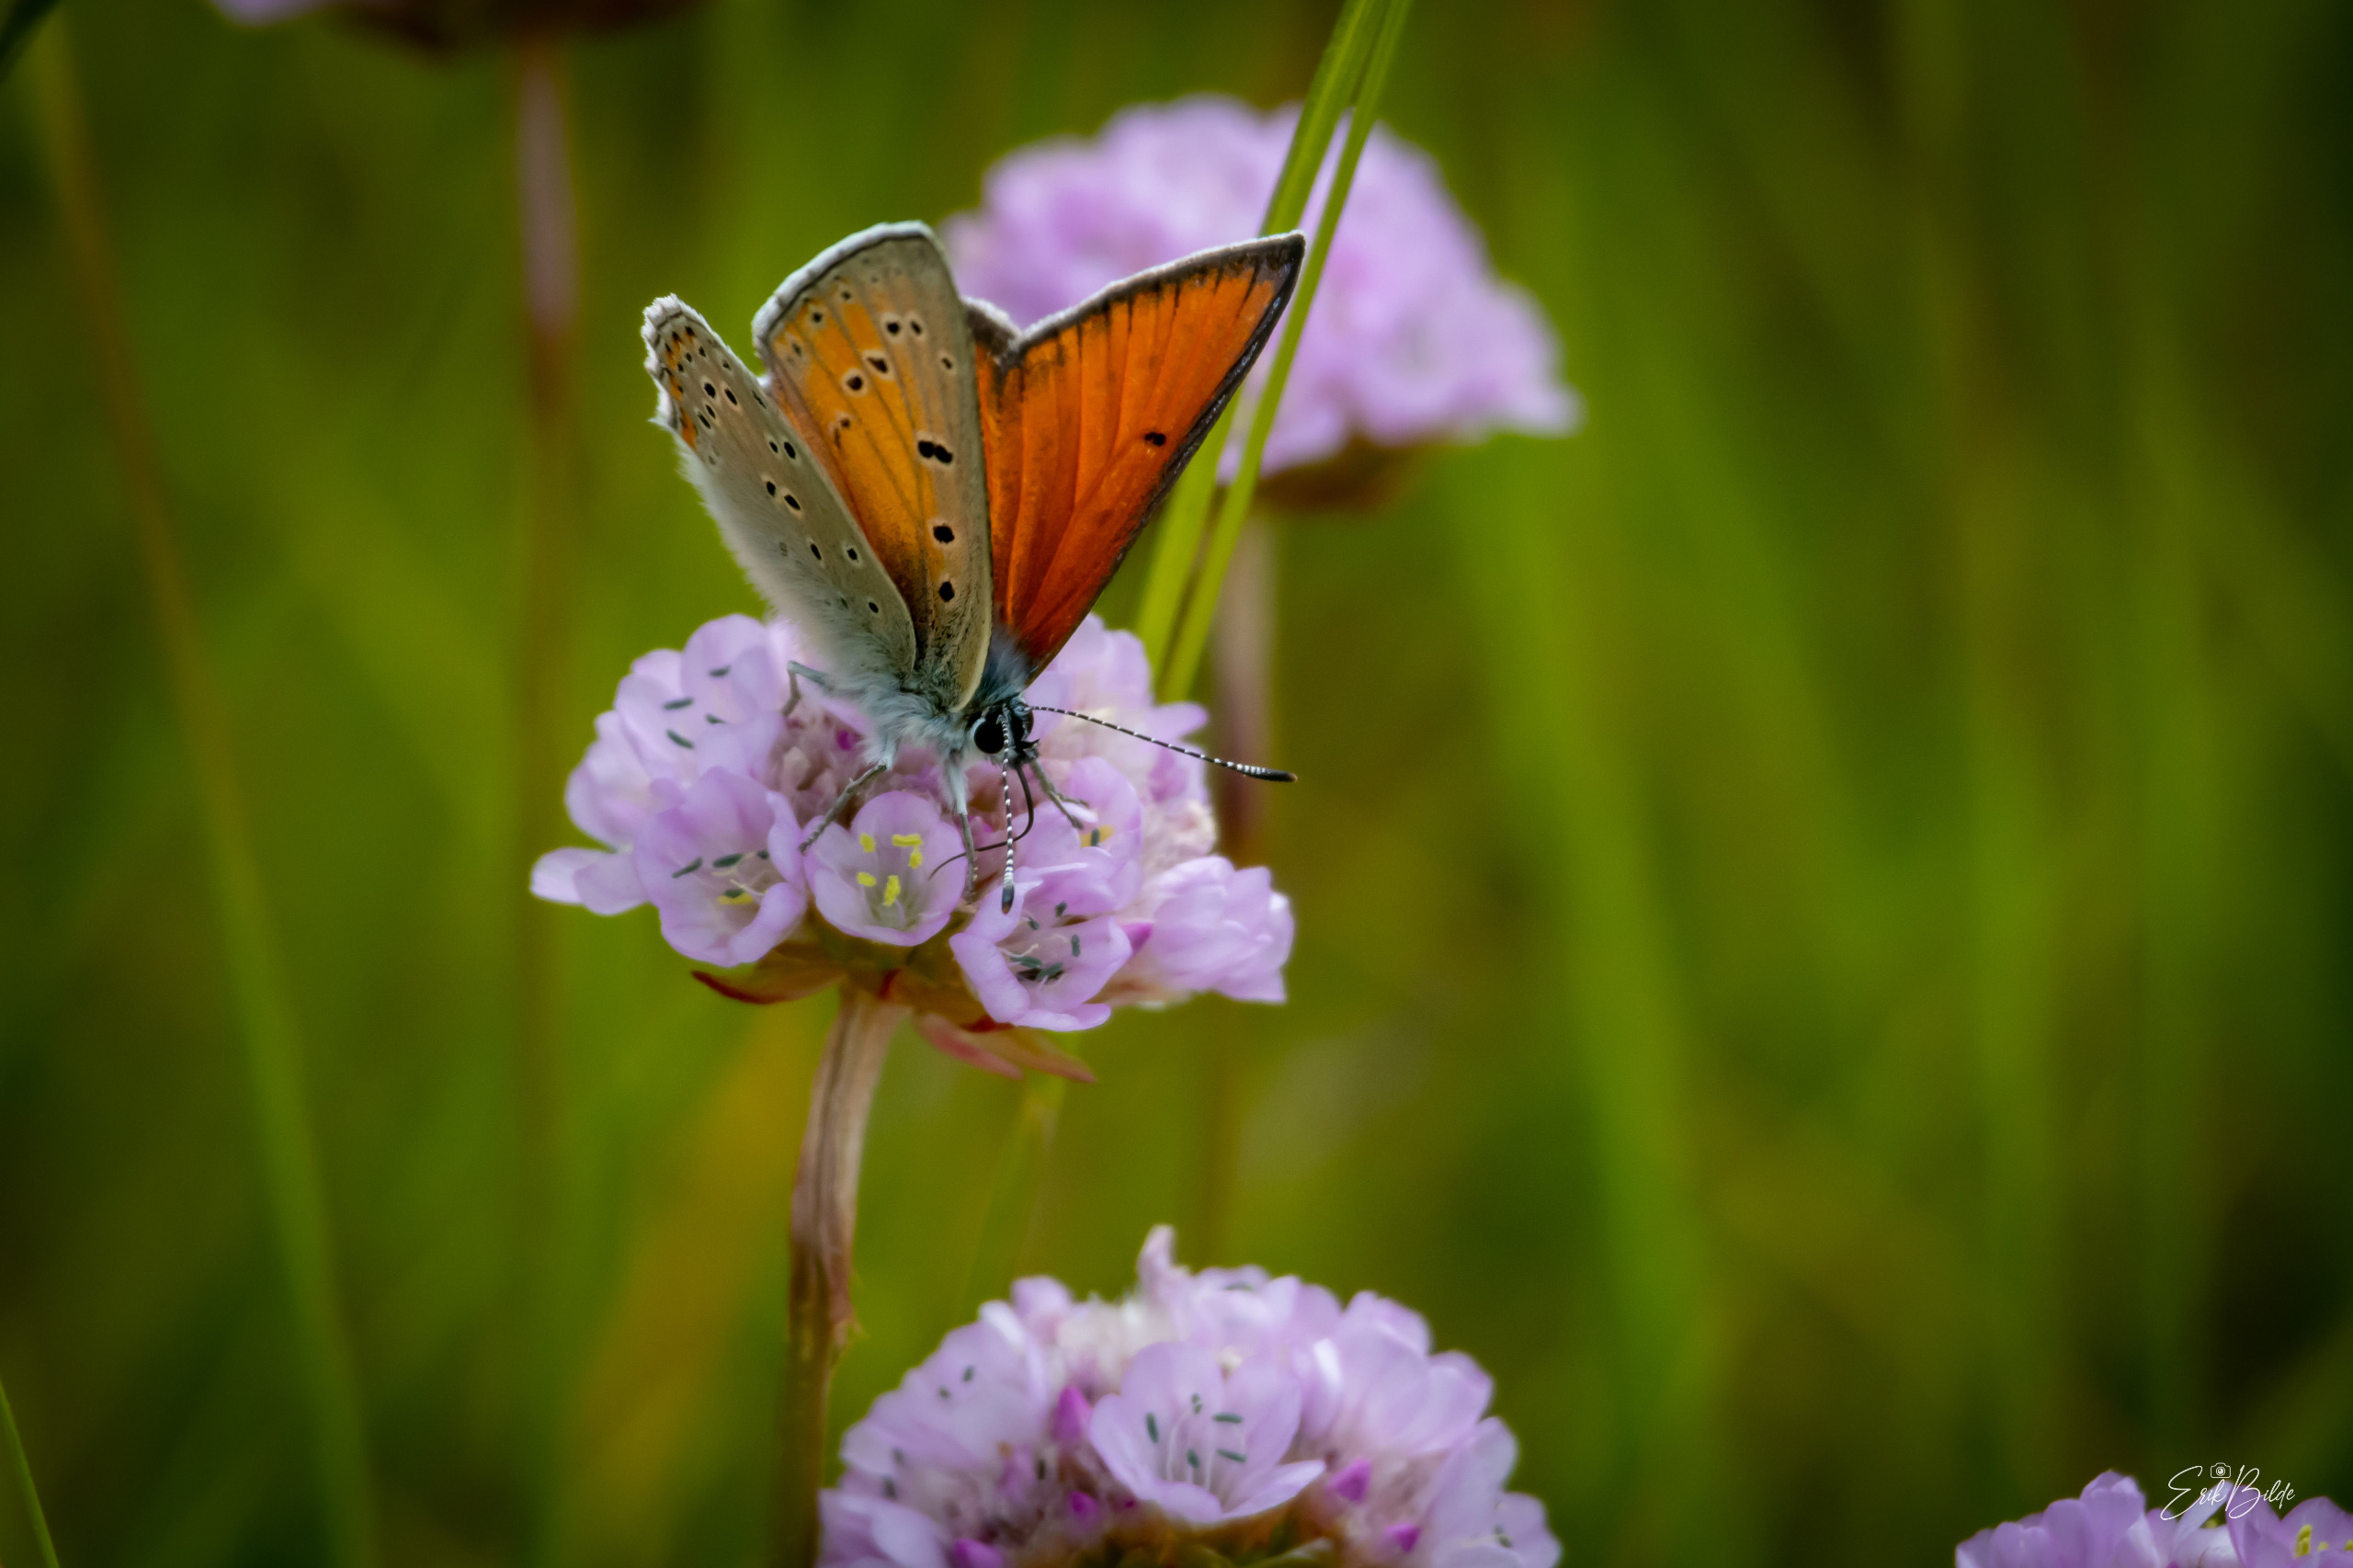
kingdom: Animalia
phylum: Arthropoda
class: Insecta
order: Lepidoptera
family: Lycaenidae
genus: Palaeochrysophanus
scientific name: Palaeochrysophanus hippothoe
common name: Violetrandet ildfugl
